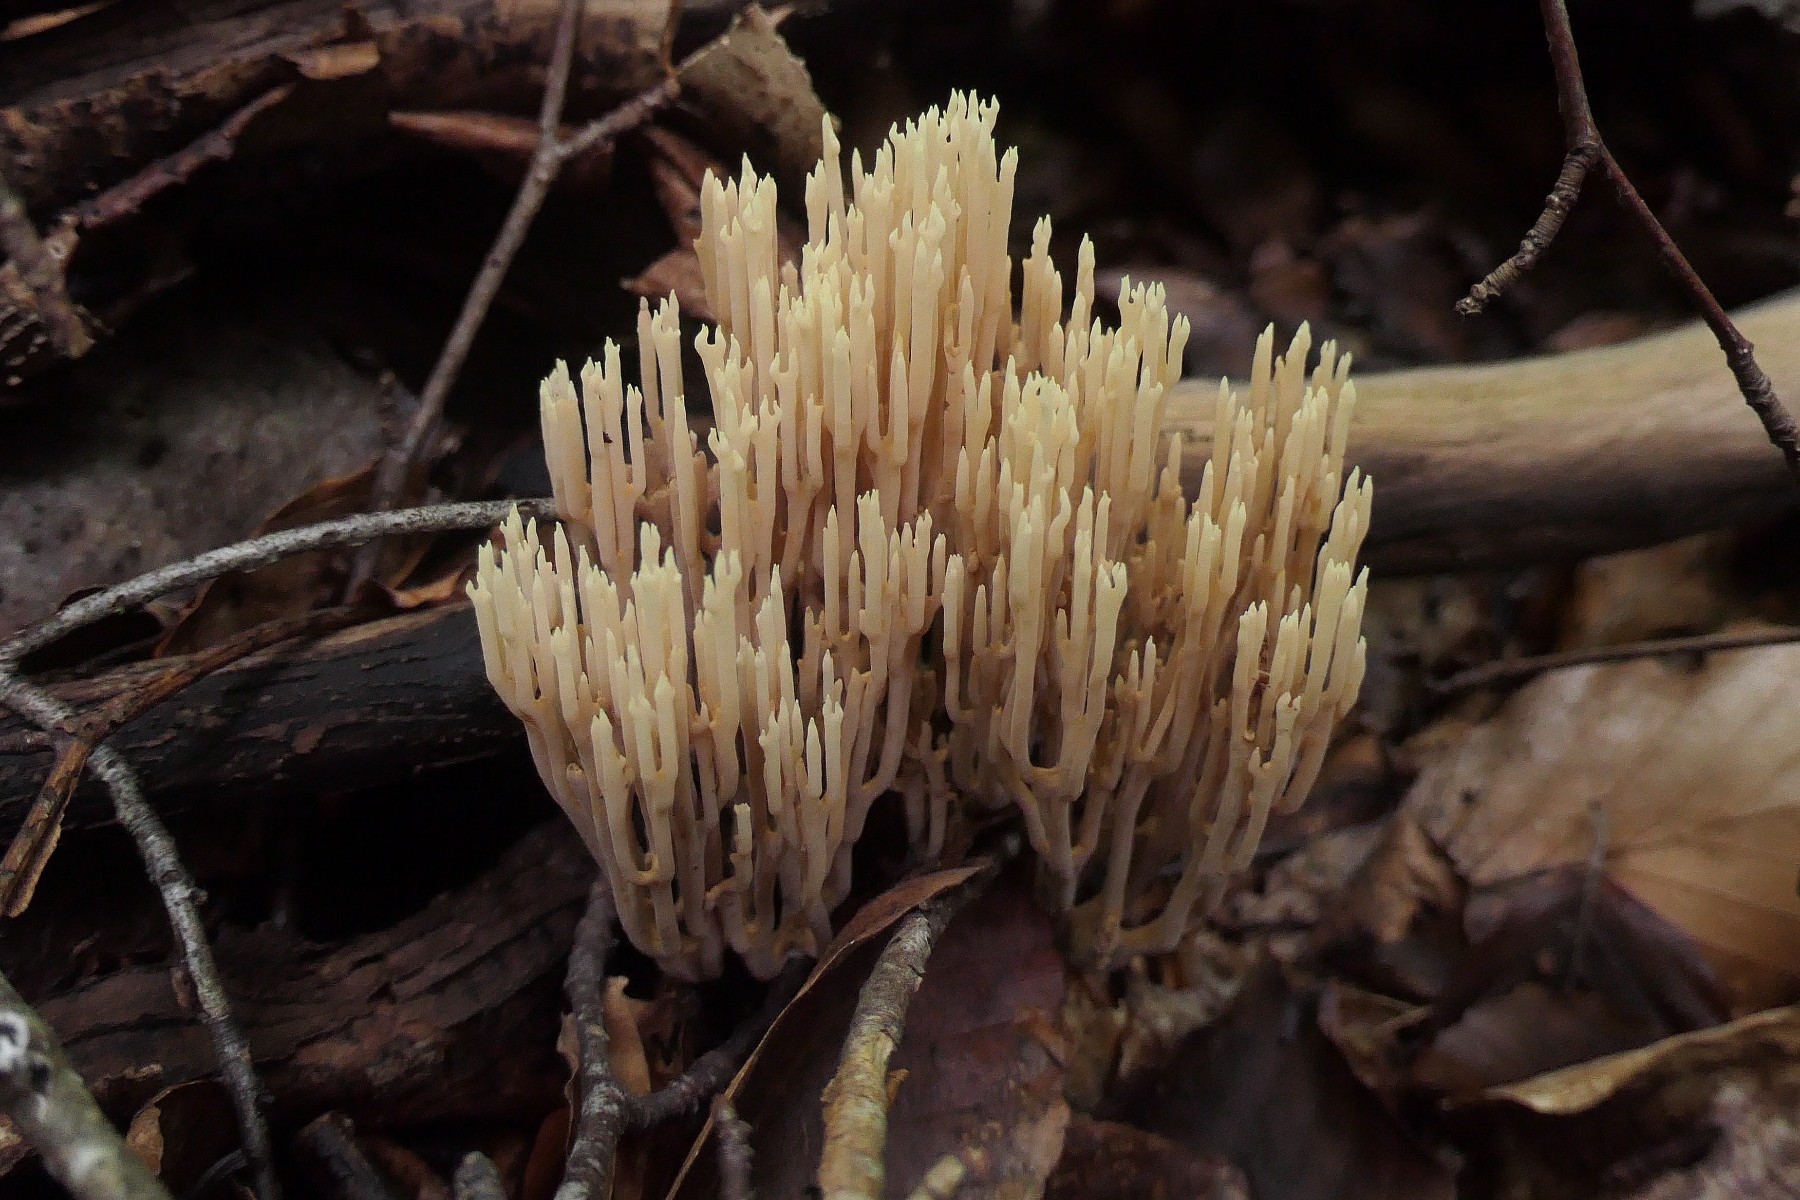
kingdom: Fungi
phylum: Basidiomycota
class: Agaricomycetes
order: Gomphales
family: Gomphaceae
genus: Ramaria
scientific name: Ramaria stricta
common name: rank koralsvamp
